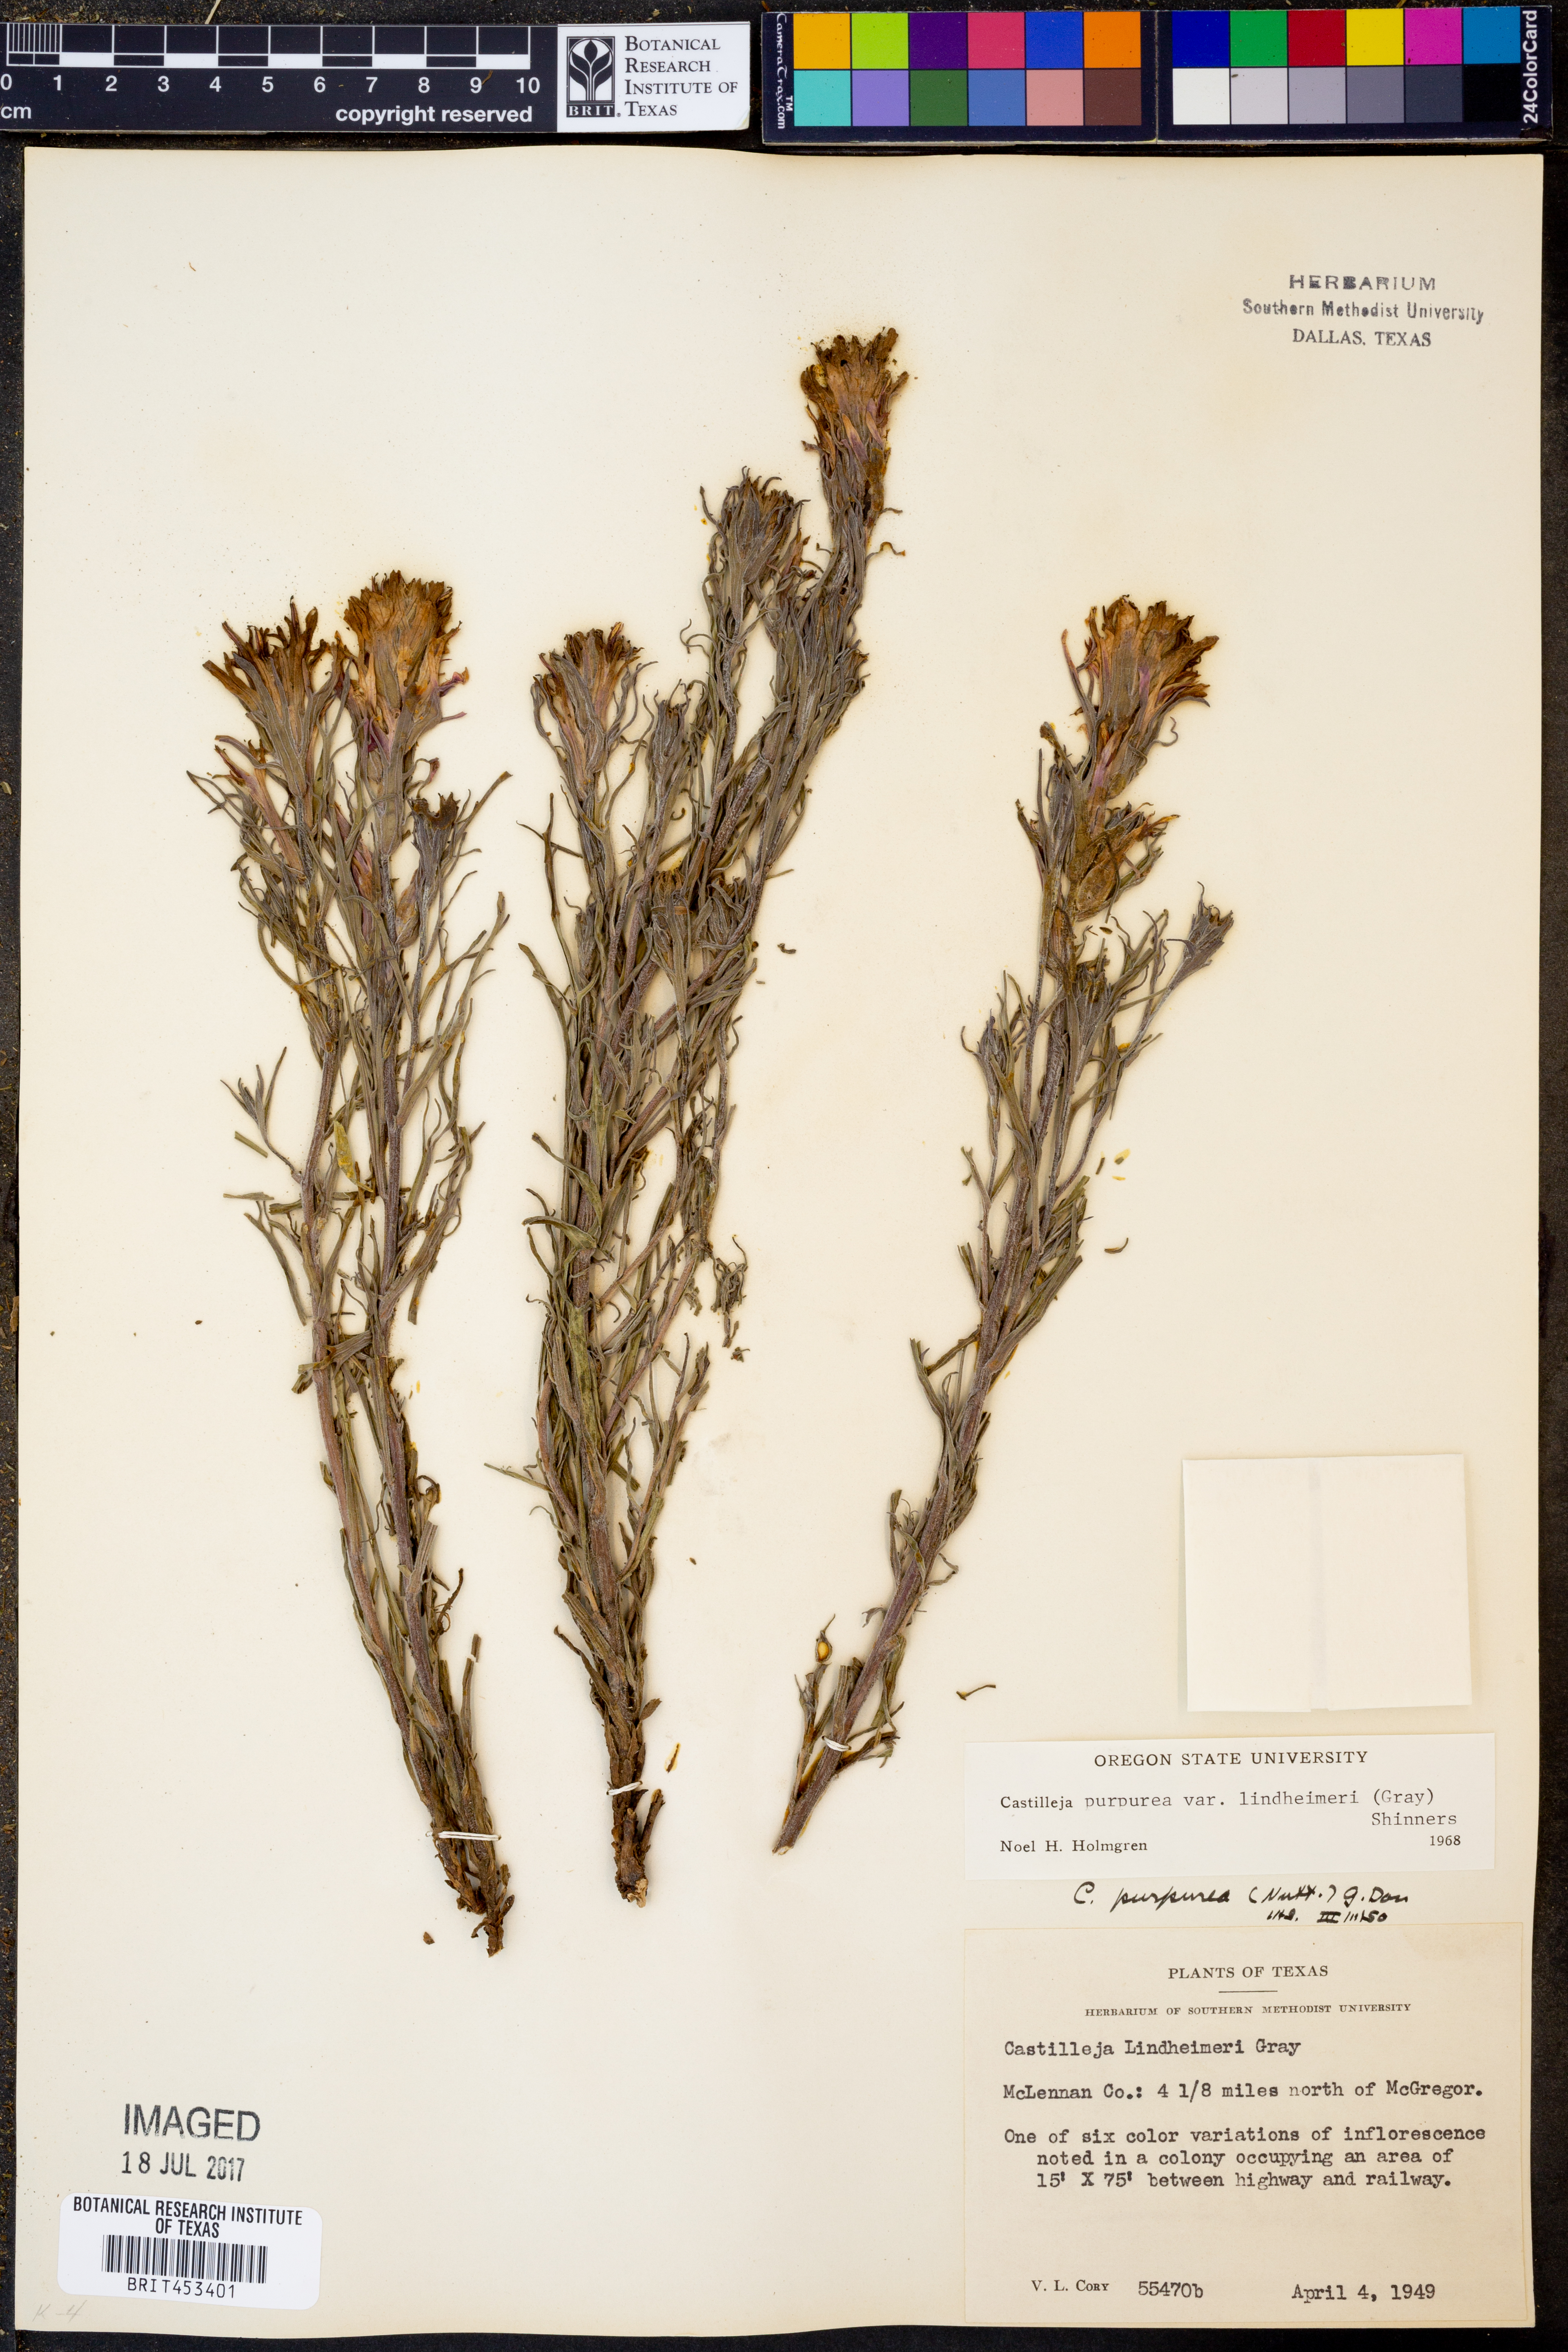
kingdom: Plantae
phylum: Tracheophyta
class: Magnoliopsida
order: Lamiales
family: Orobanchaceae
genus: Castilleja
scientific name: Castilleja lindheimeri
